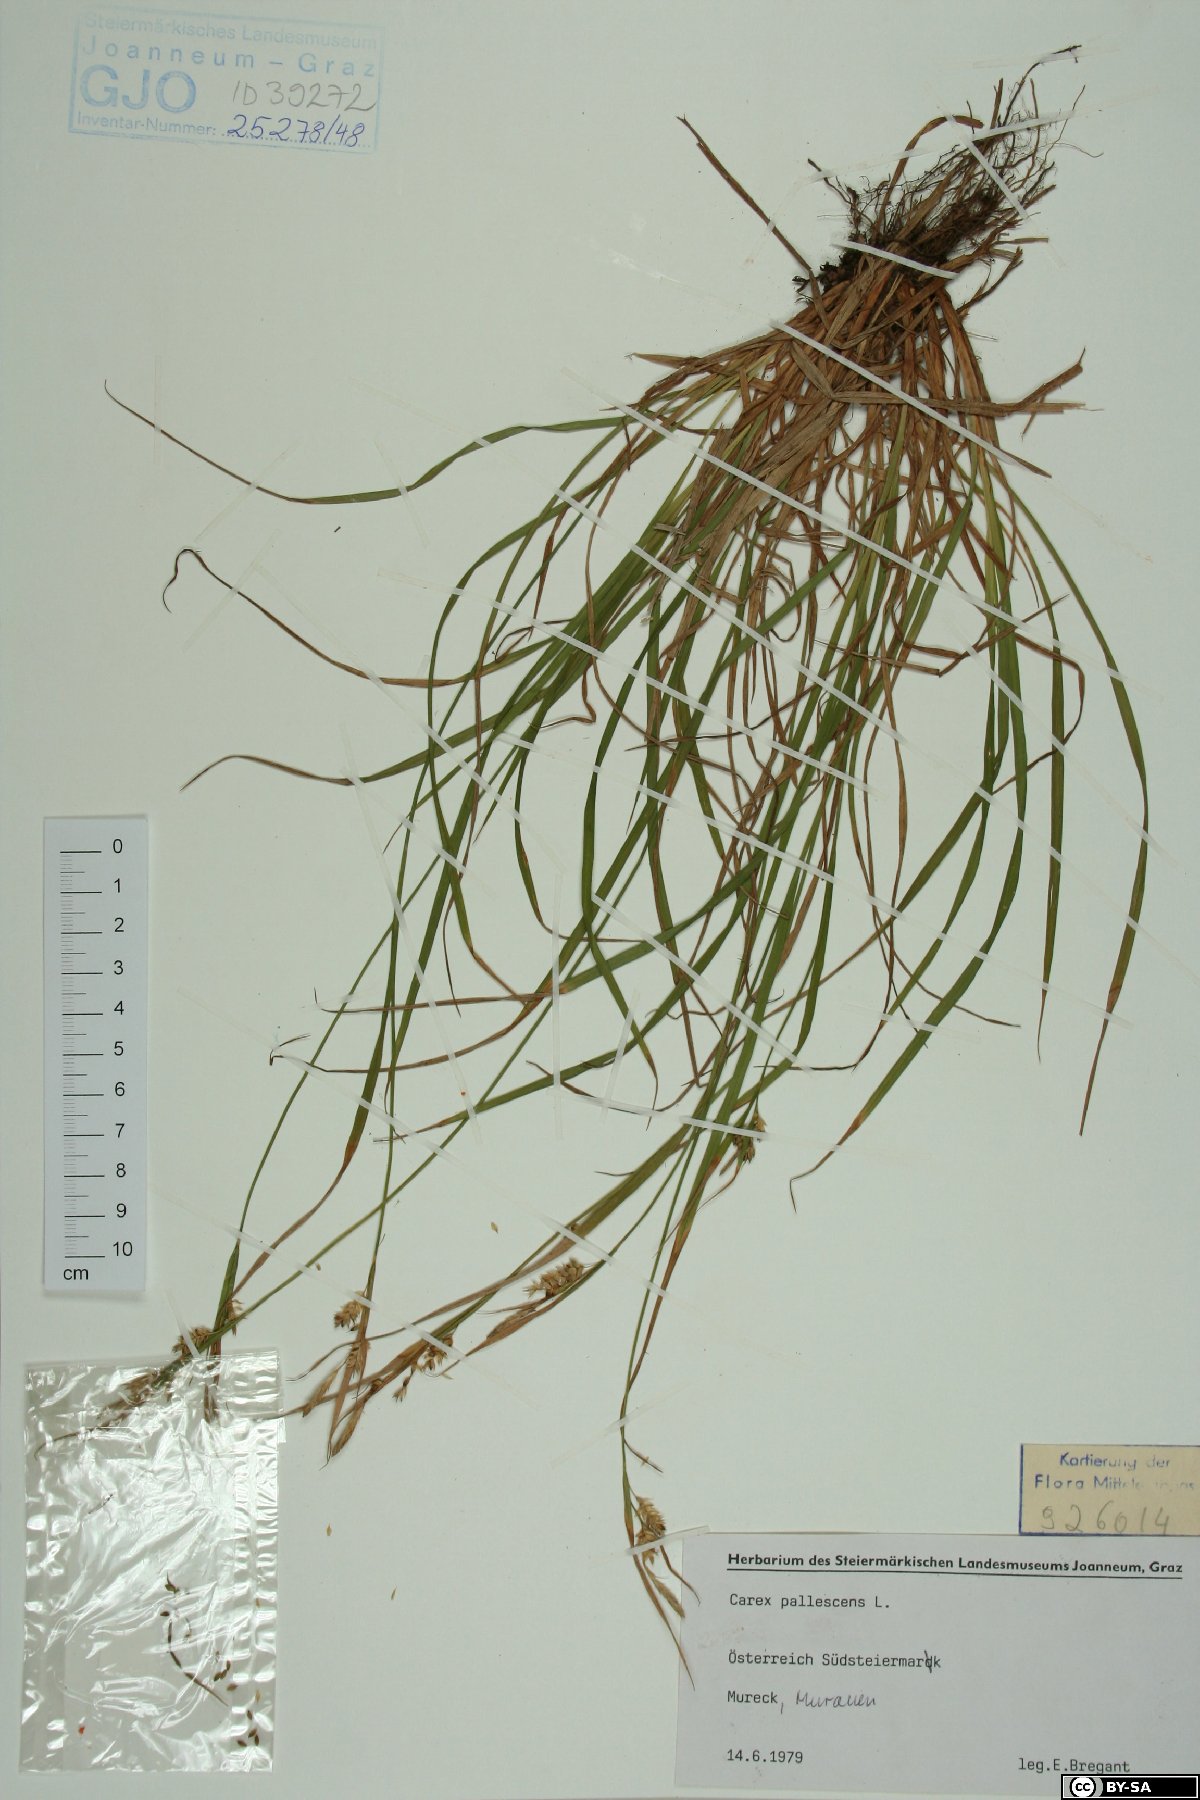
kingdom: Plantae
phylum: Tracheophyta
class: Liliopsida
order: Poales
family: Cyperaceae
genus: Carex
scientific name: Carex pallescens
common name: Pale sedge
